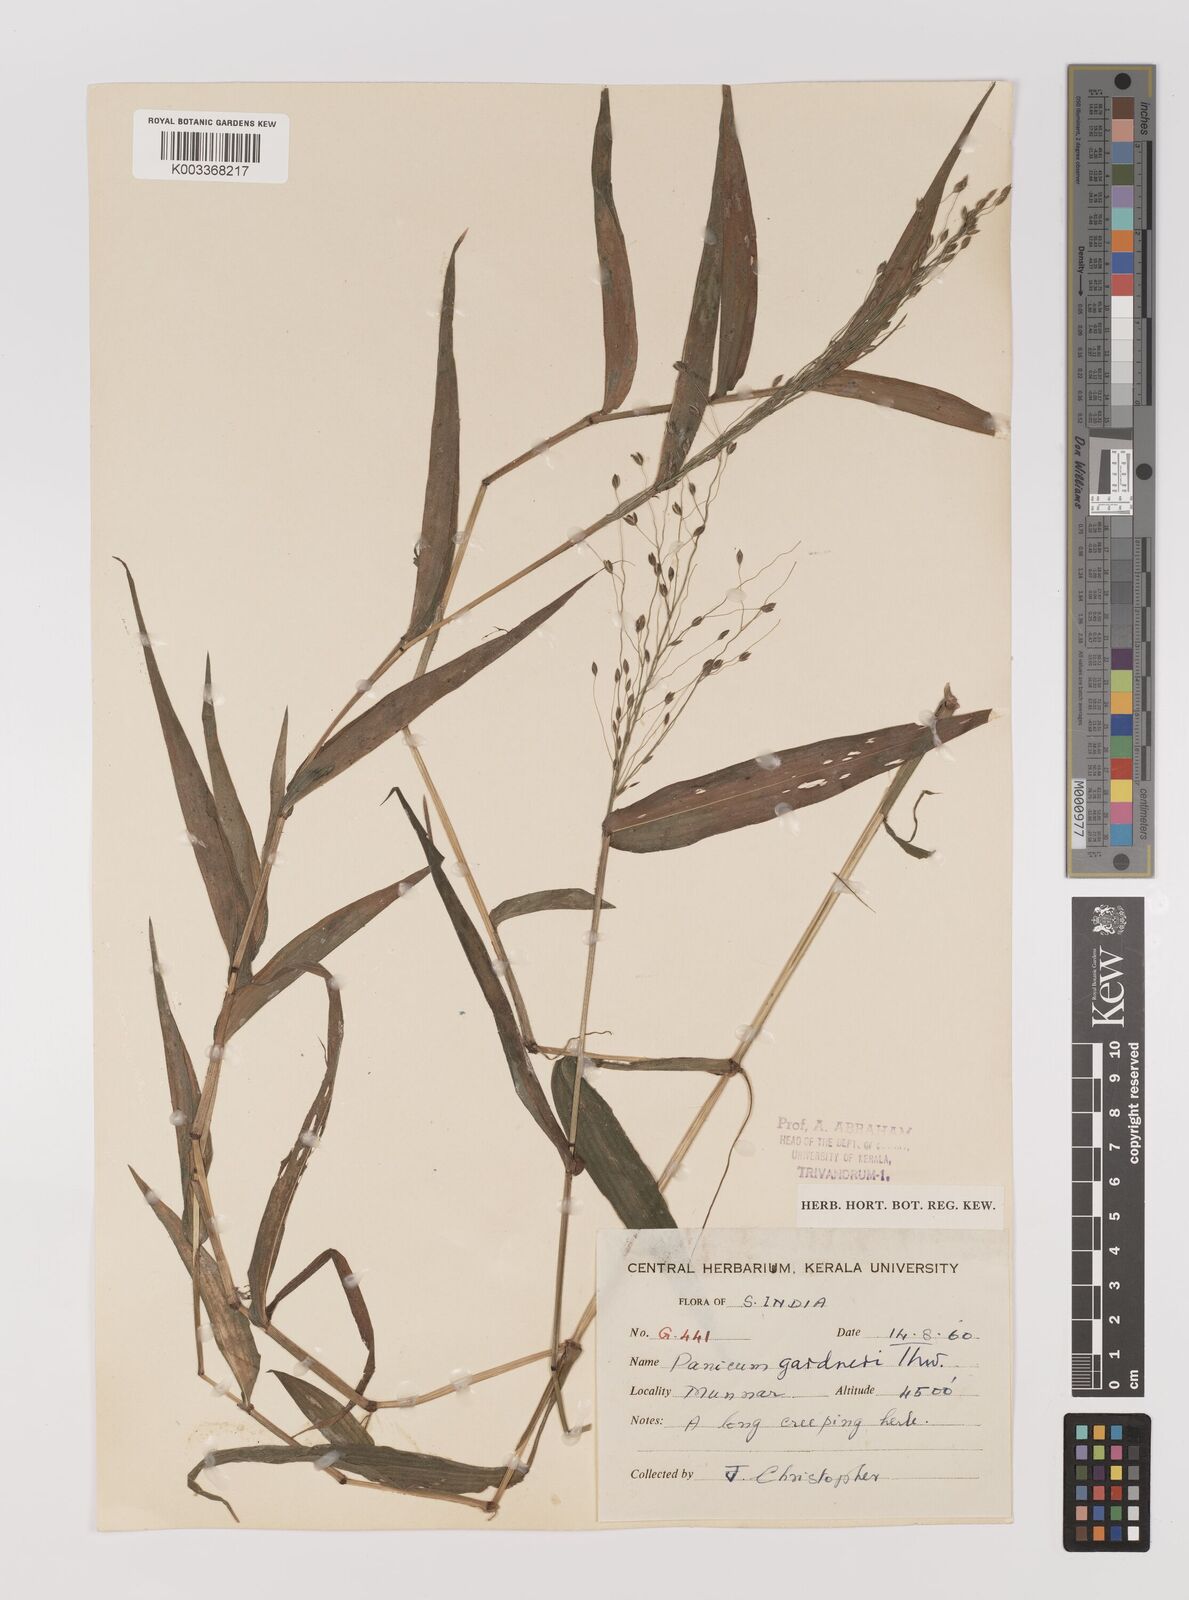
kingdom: Plantae
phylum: Tracheophyta
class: Liliopsida
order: Poales
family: Poaceae
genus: Panicum
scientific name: Panicum gardneri
